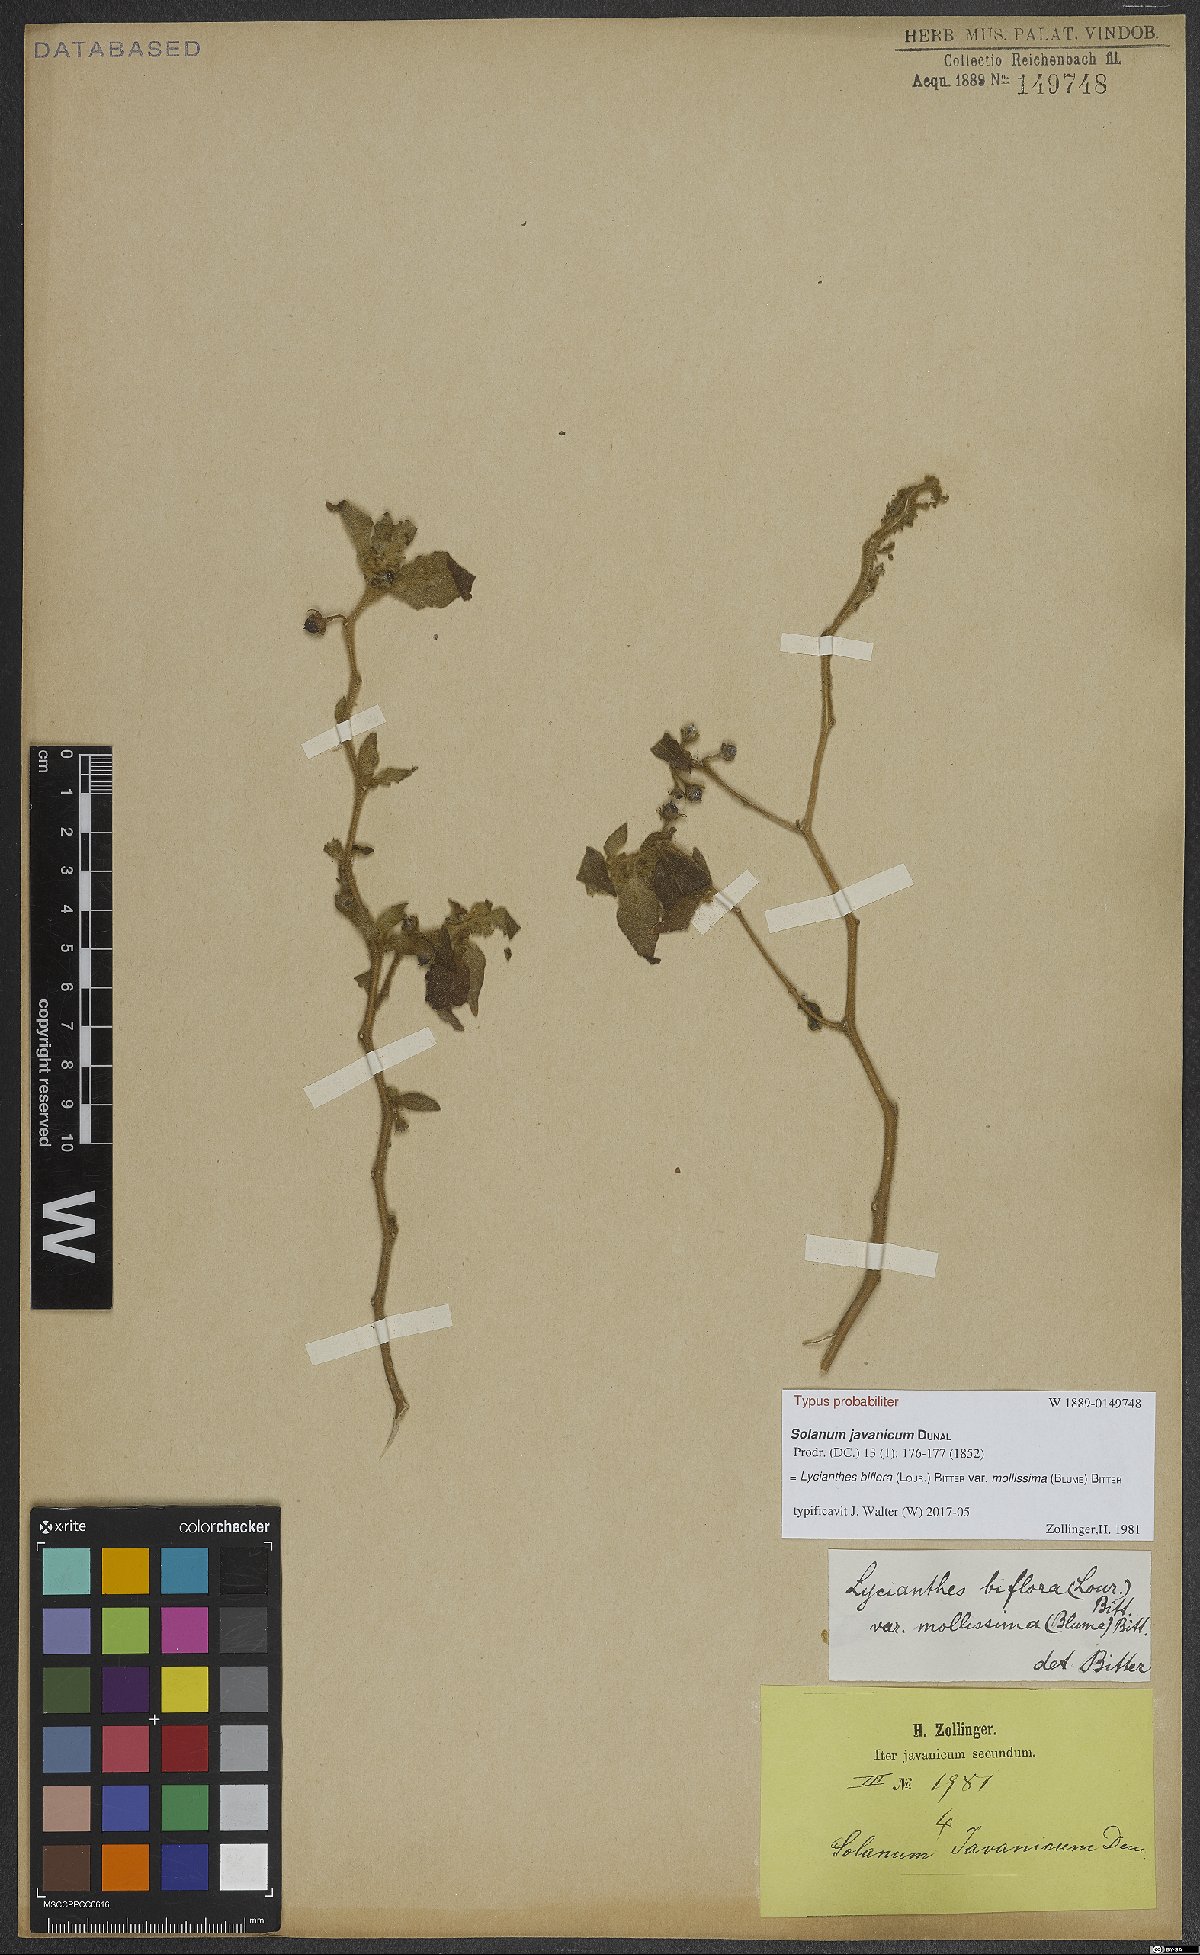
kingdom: Plantae
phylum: Tracheophyta
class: Magnoliopsida
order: Solanales
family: Solanaceae
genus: Lycianthes
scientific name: Lycianthes biflora
